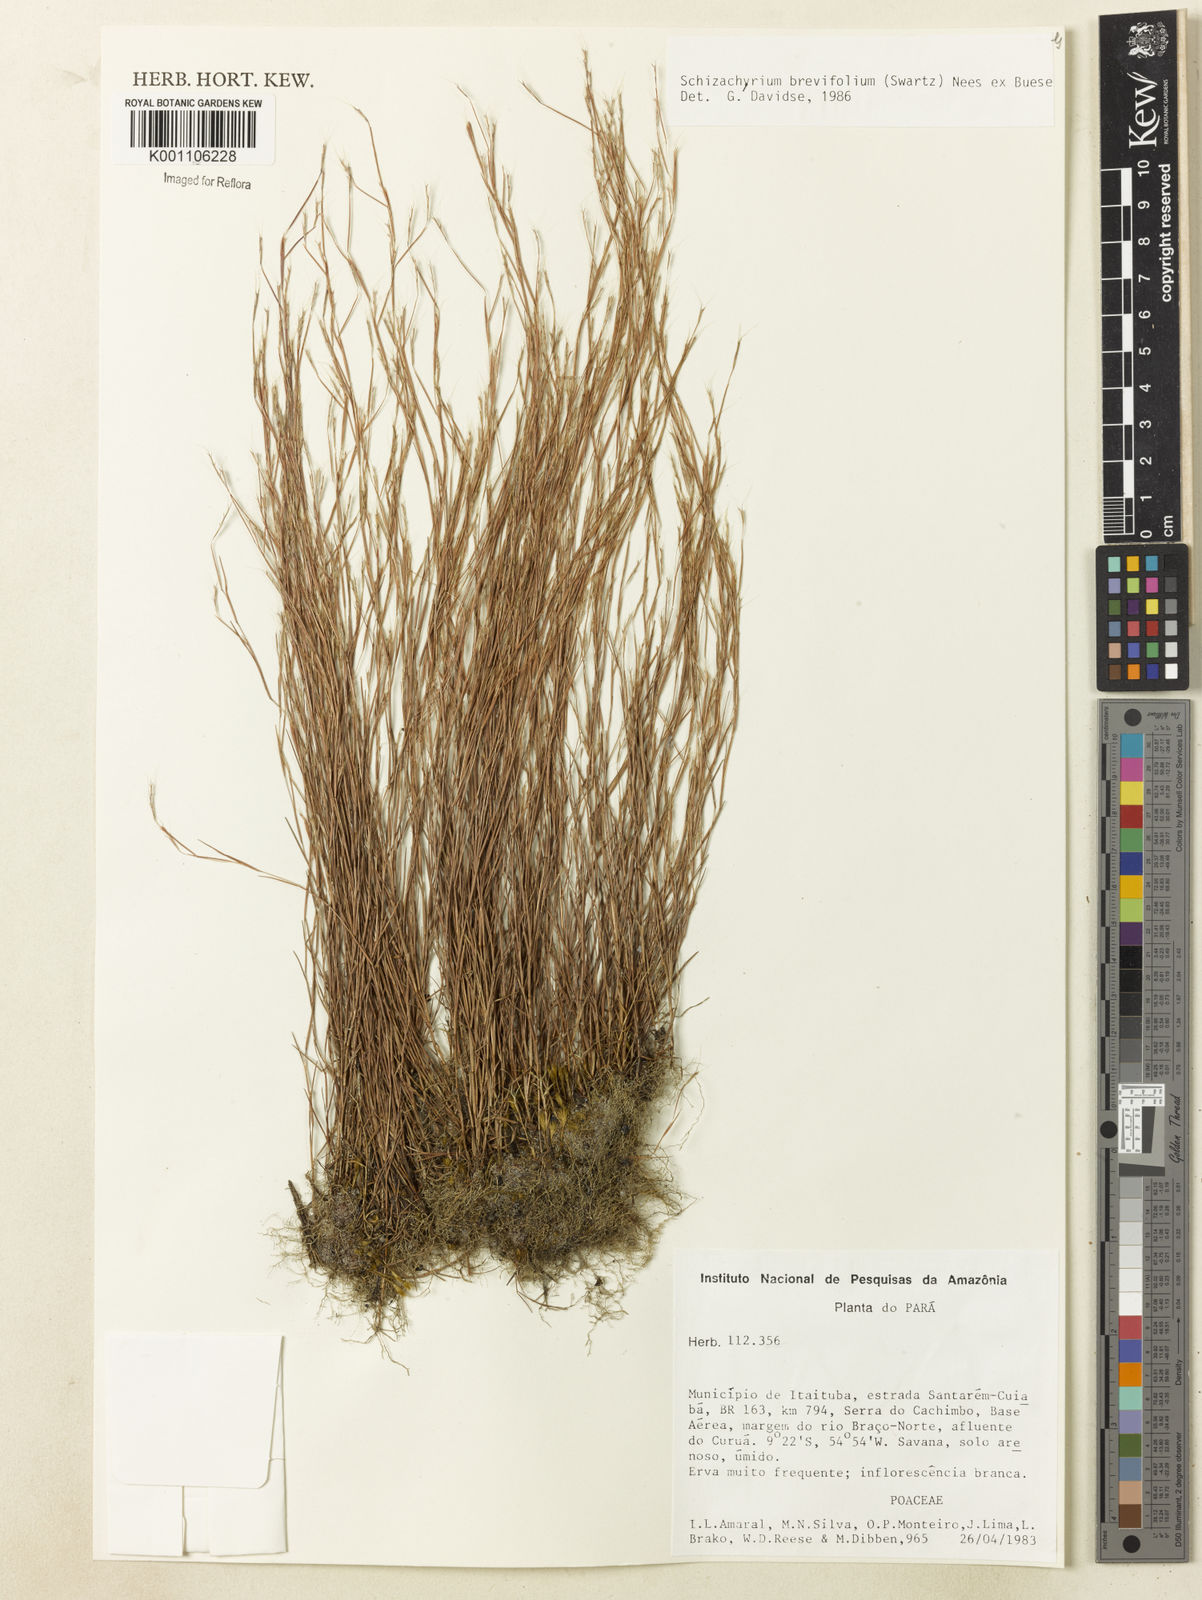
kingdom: Plantae
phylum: Tracheophyta
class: Liliopsida
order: Poales
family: Poaceae
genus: Schizachyrium
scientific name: Schizachyrium brevifolium
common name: Serillo dulce
